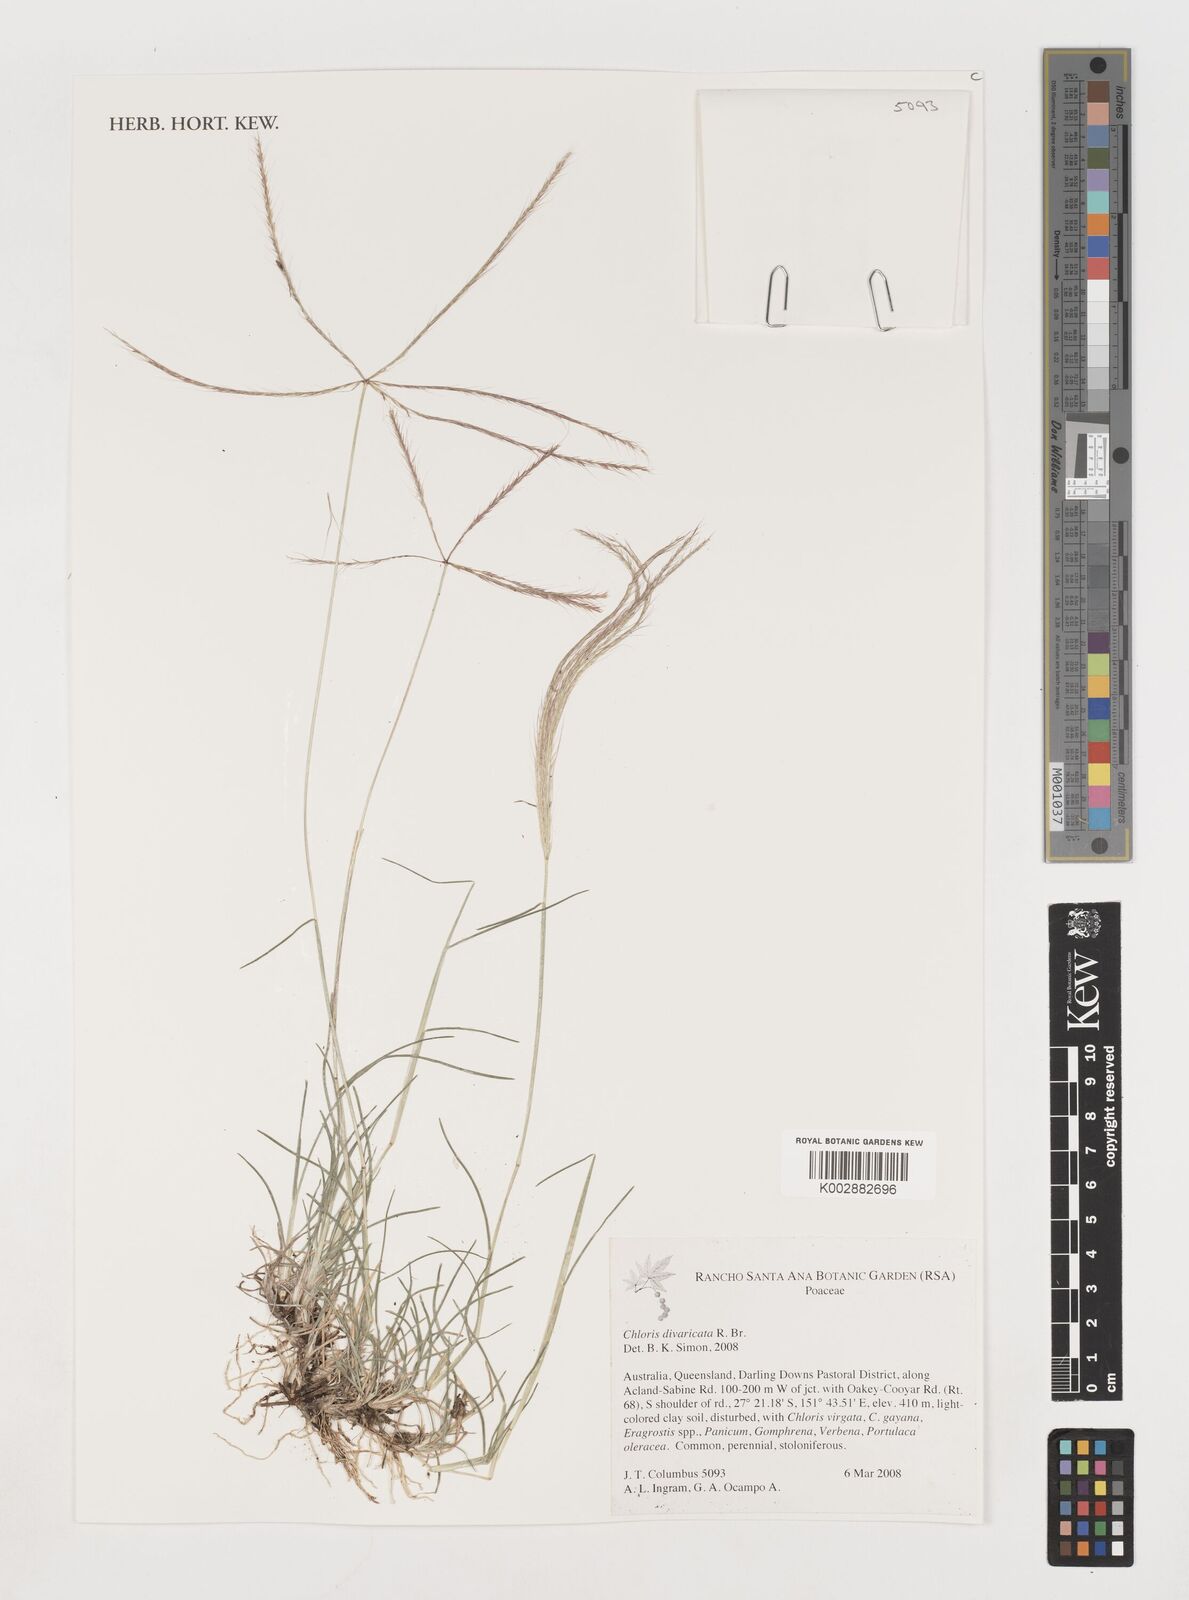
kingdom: Plantae
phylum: Tracheophyta
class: Liliopsida
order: Poales
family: Poaceae
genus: Chloris
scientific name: Chloris divaricata
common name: Spreading windmill grass
